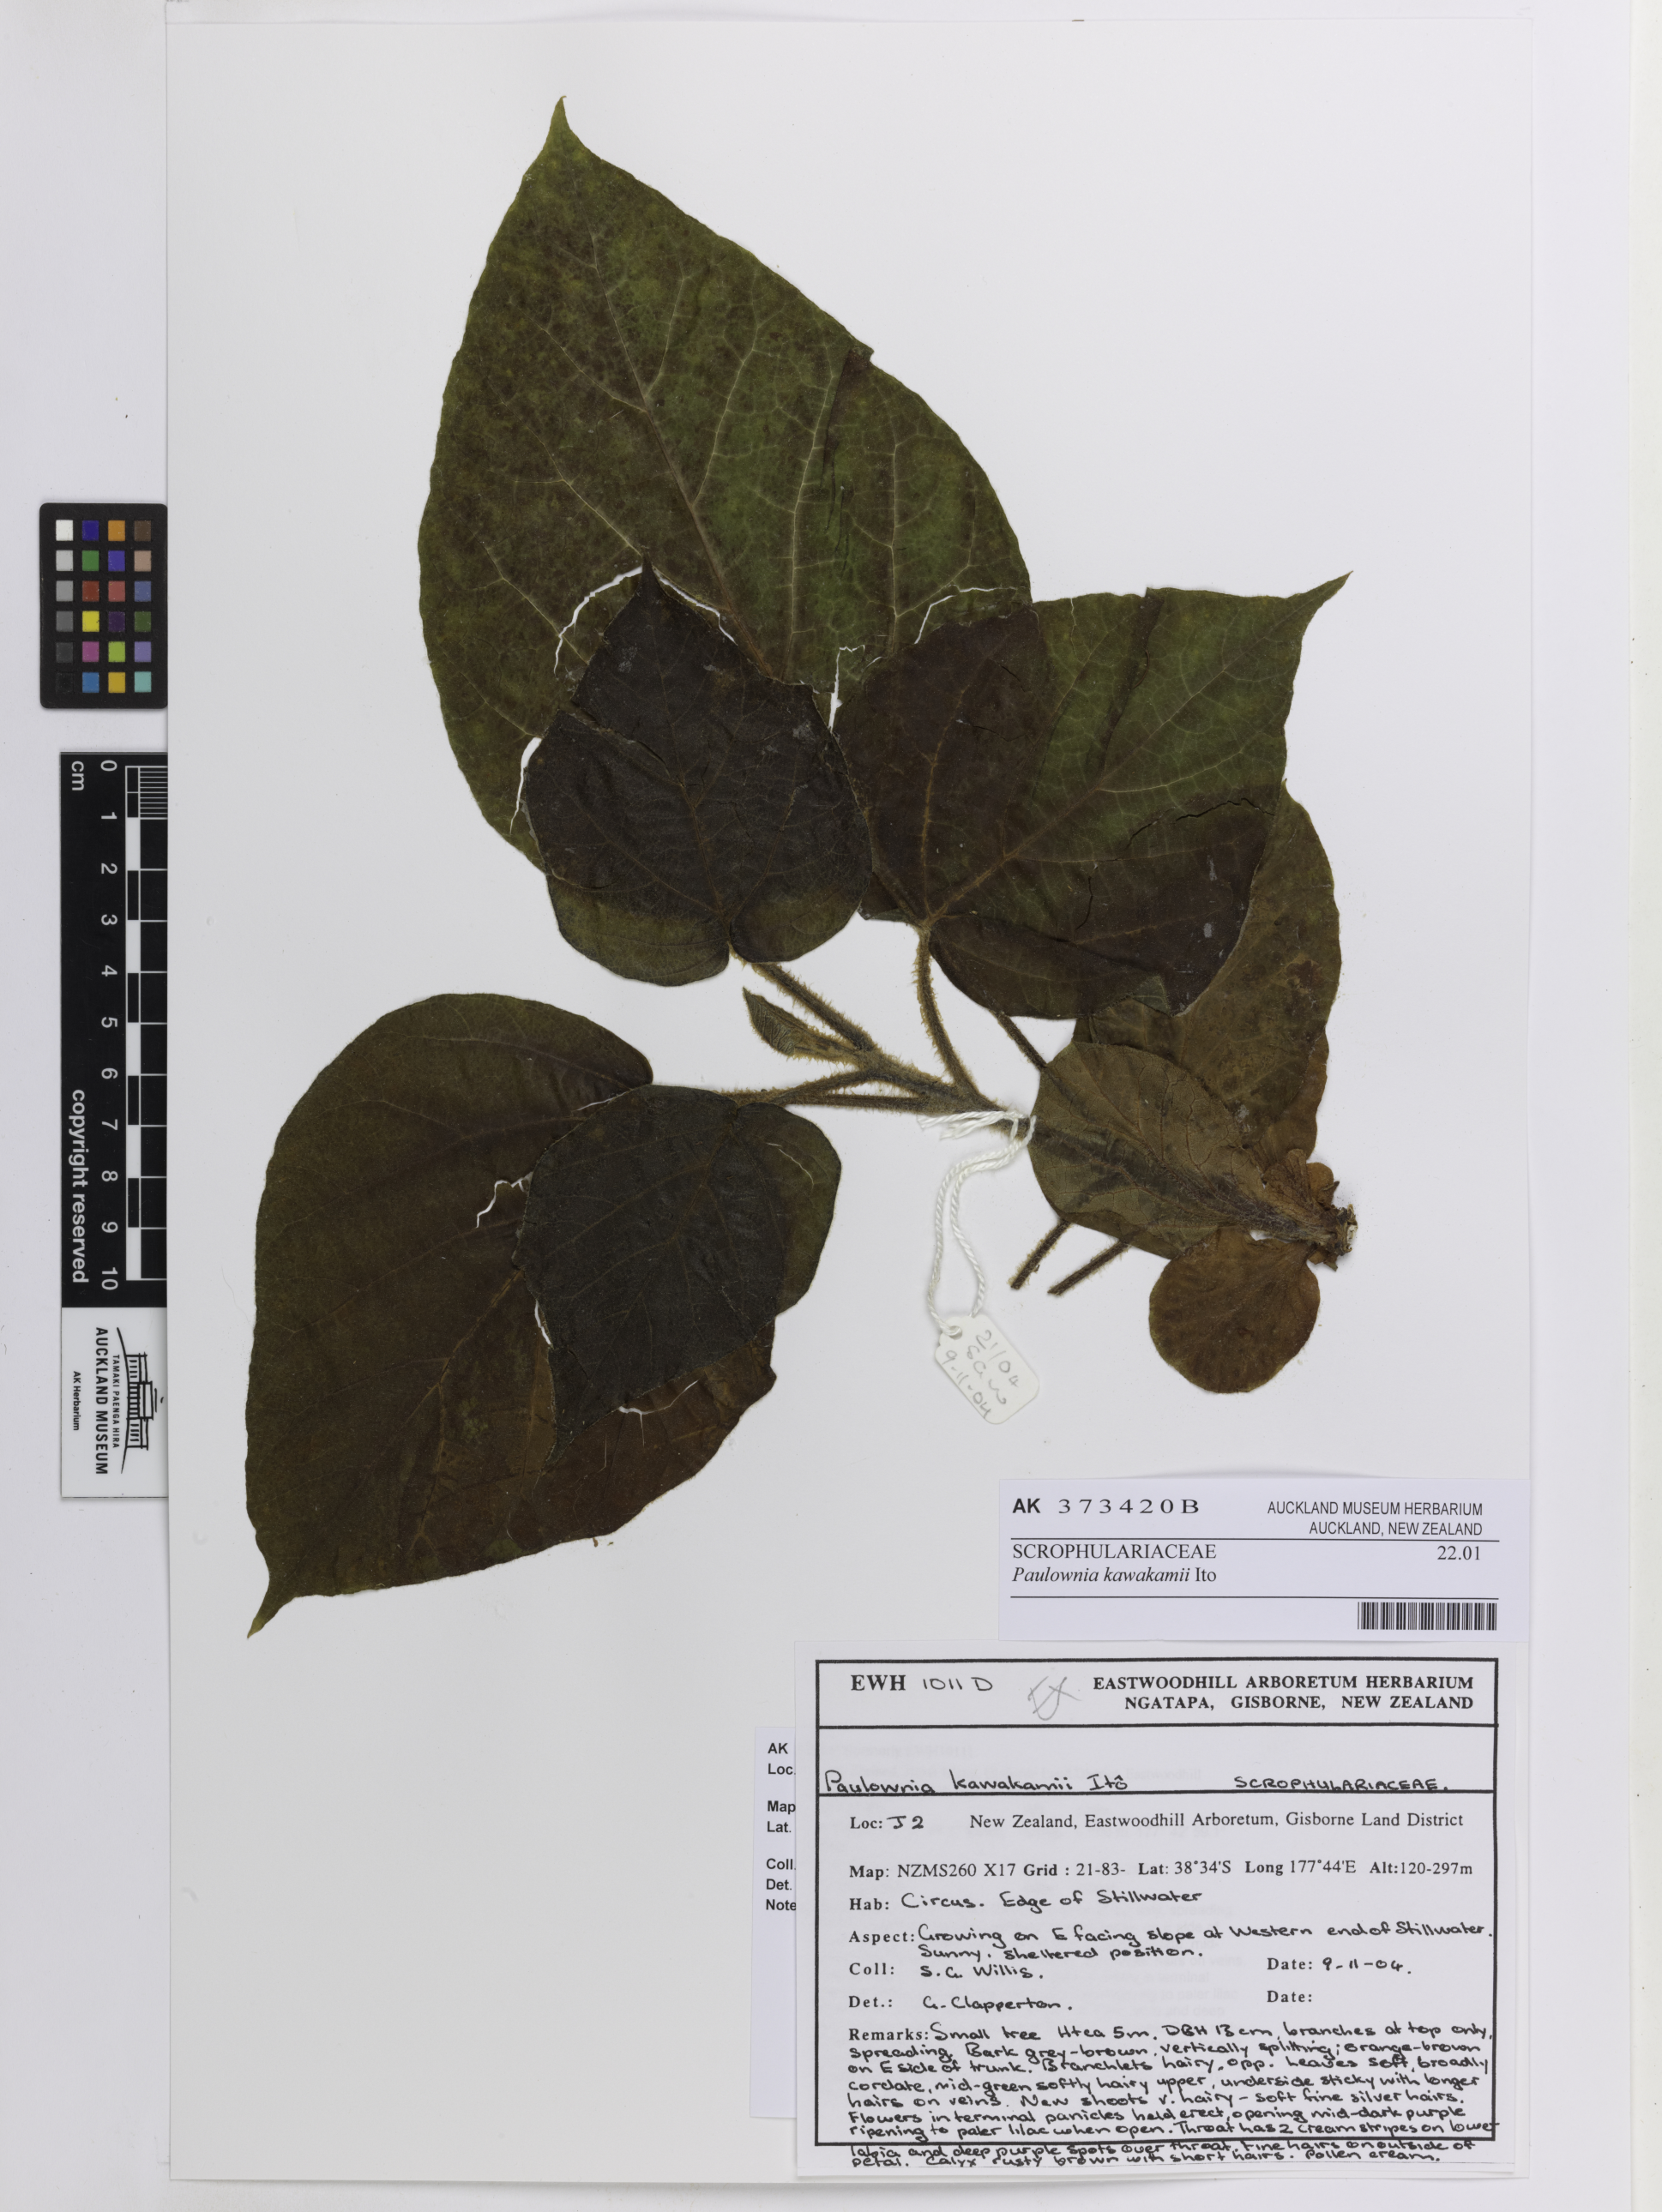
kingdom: Plantae
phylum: Tracheophyta
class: Magnoliopsida
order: Lamiales
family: Paulowniaceae
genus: Paulownia
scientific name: Paulownia kawakamii
